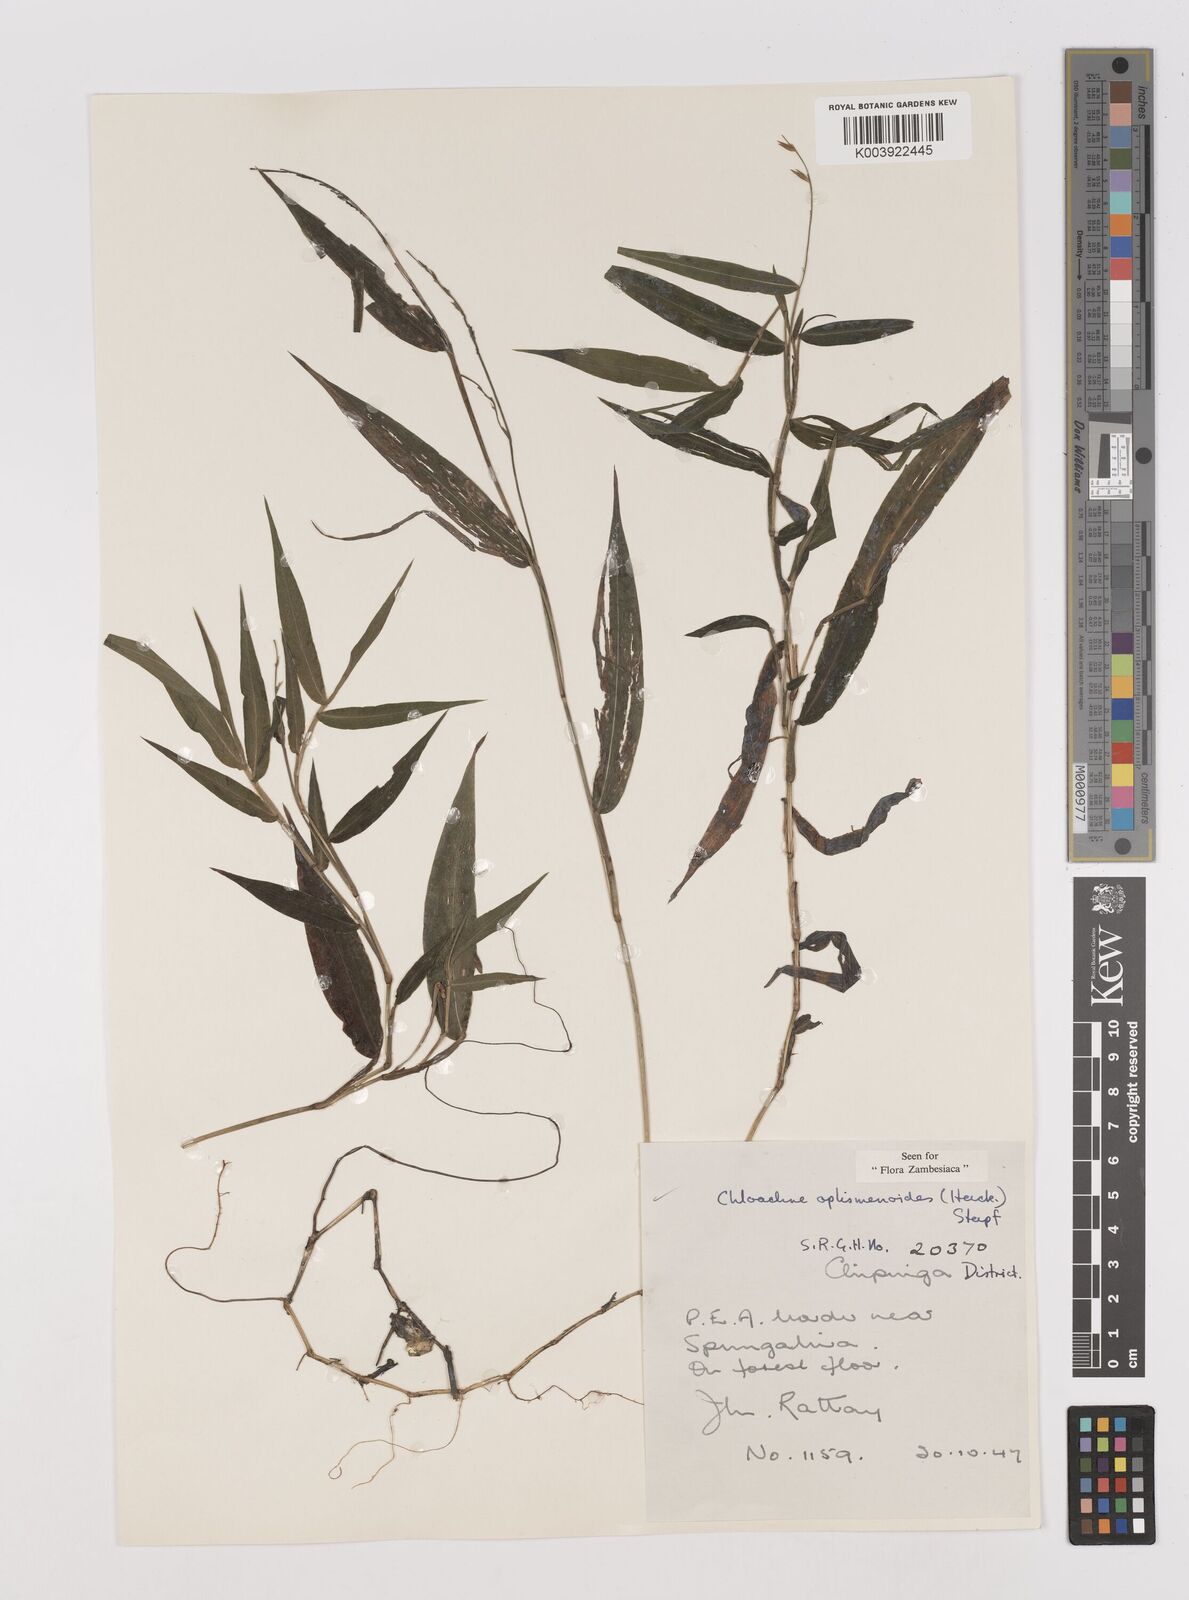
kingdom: Plantae
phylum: Tracheophyta
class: Liliopsida
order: Poales
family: Poaceae
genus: Poecilostachys
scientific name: Poecilostachys oplismenoides
